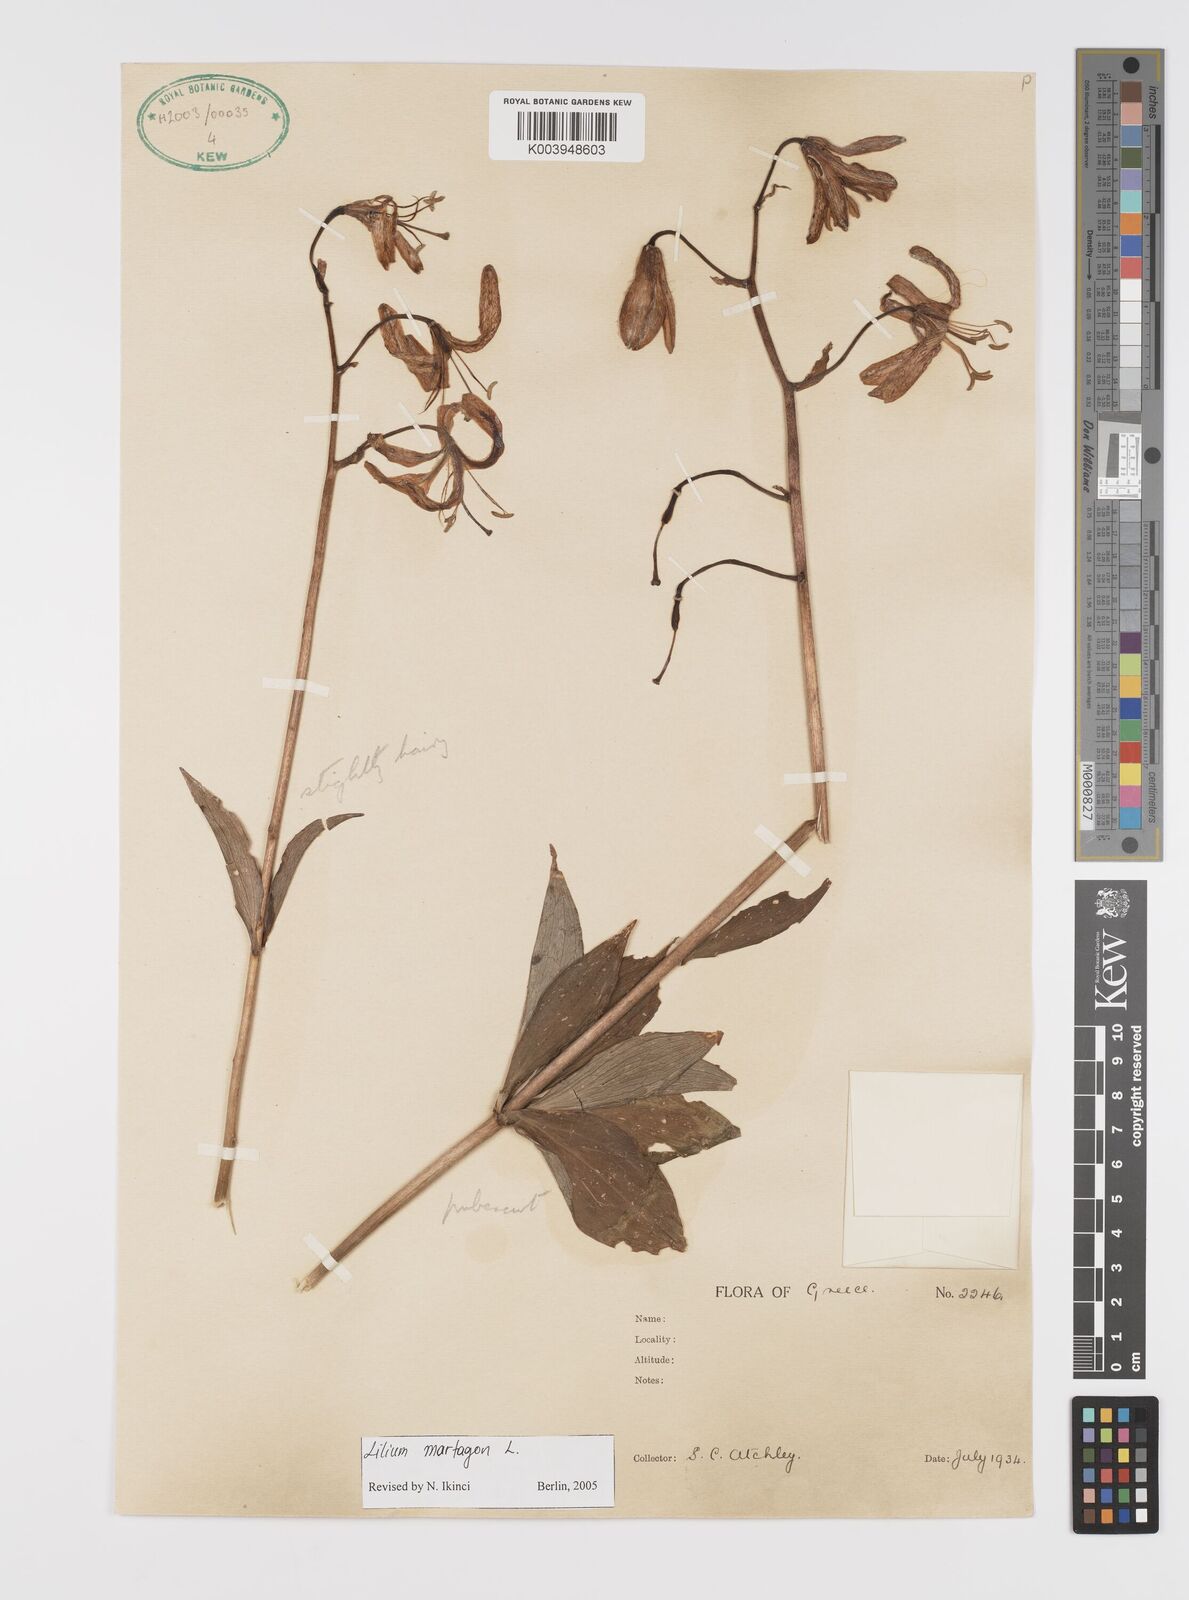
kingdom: Plantae
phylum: Tracheophyta
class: Liliopsida
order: Liliales
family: Liliaceae
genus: Lilium
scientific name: Lilium martagon
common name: Martagon lily
